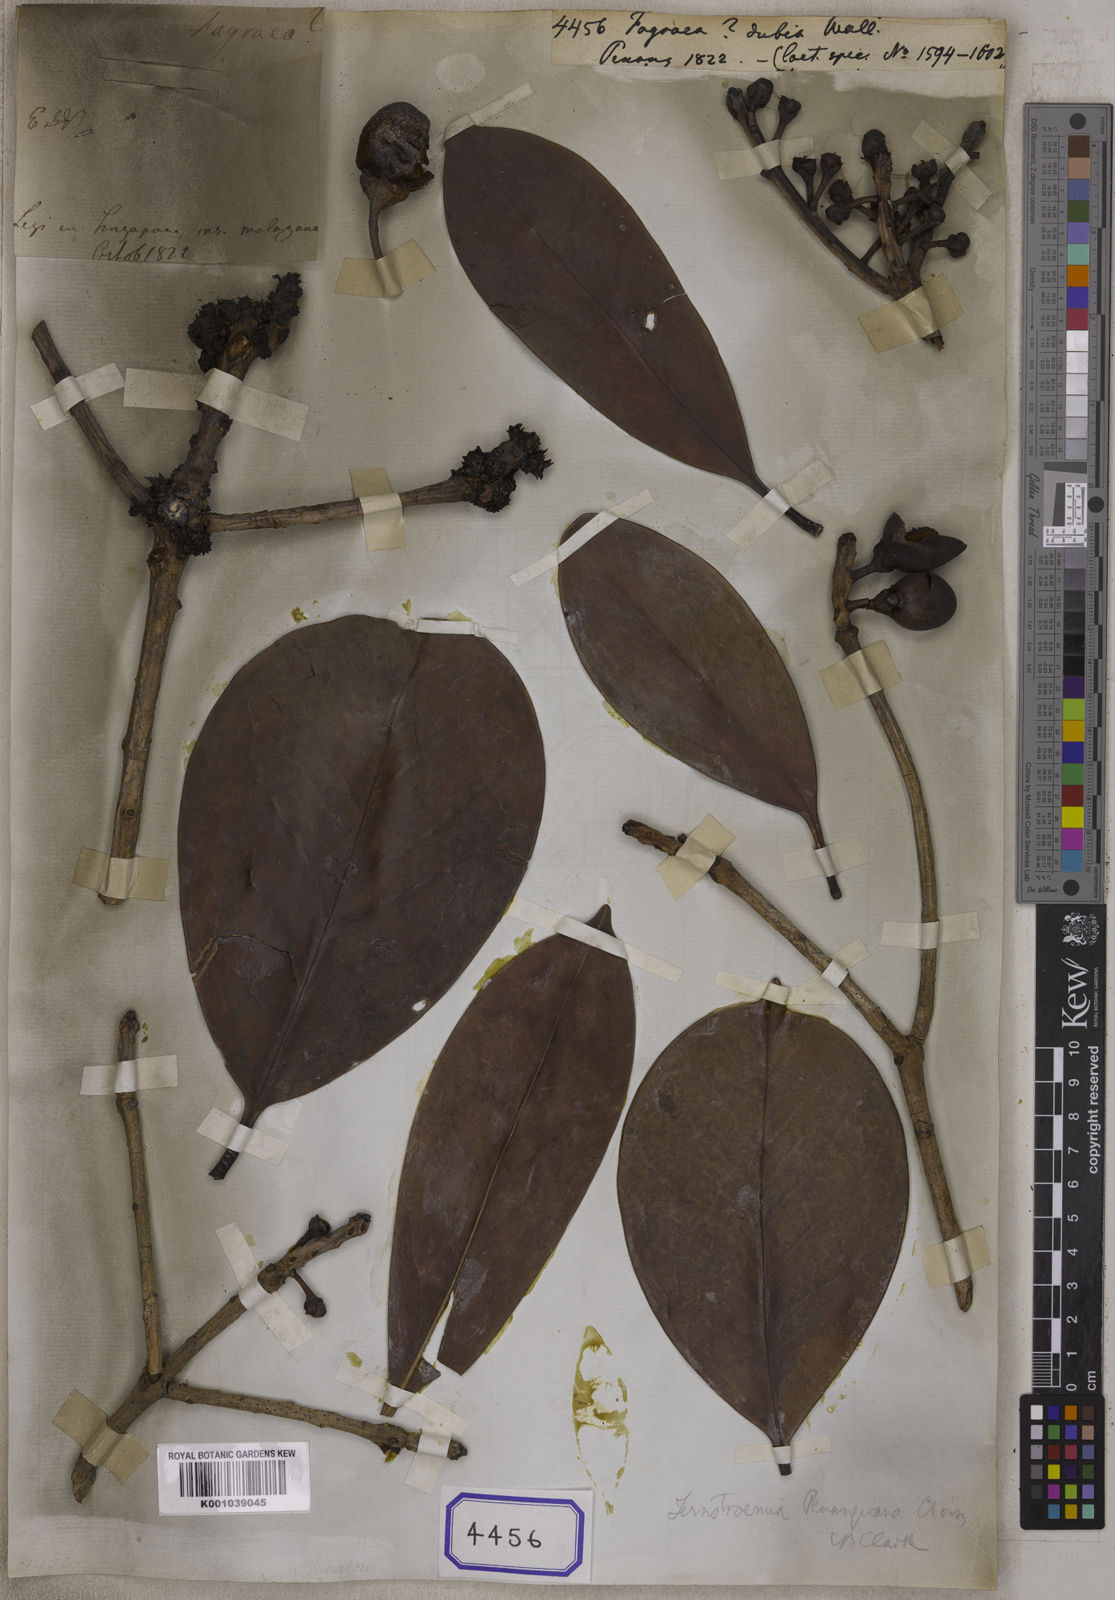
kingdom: Plantae
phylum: Tracheophyta
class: Magnoliopsida
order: Gentianales
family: Gentianaceae
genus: Fagraea
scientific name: Fagraea
